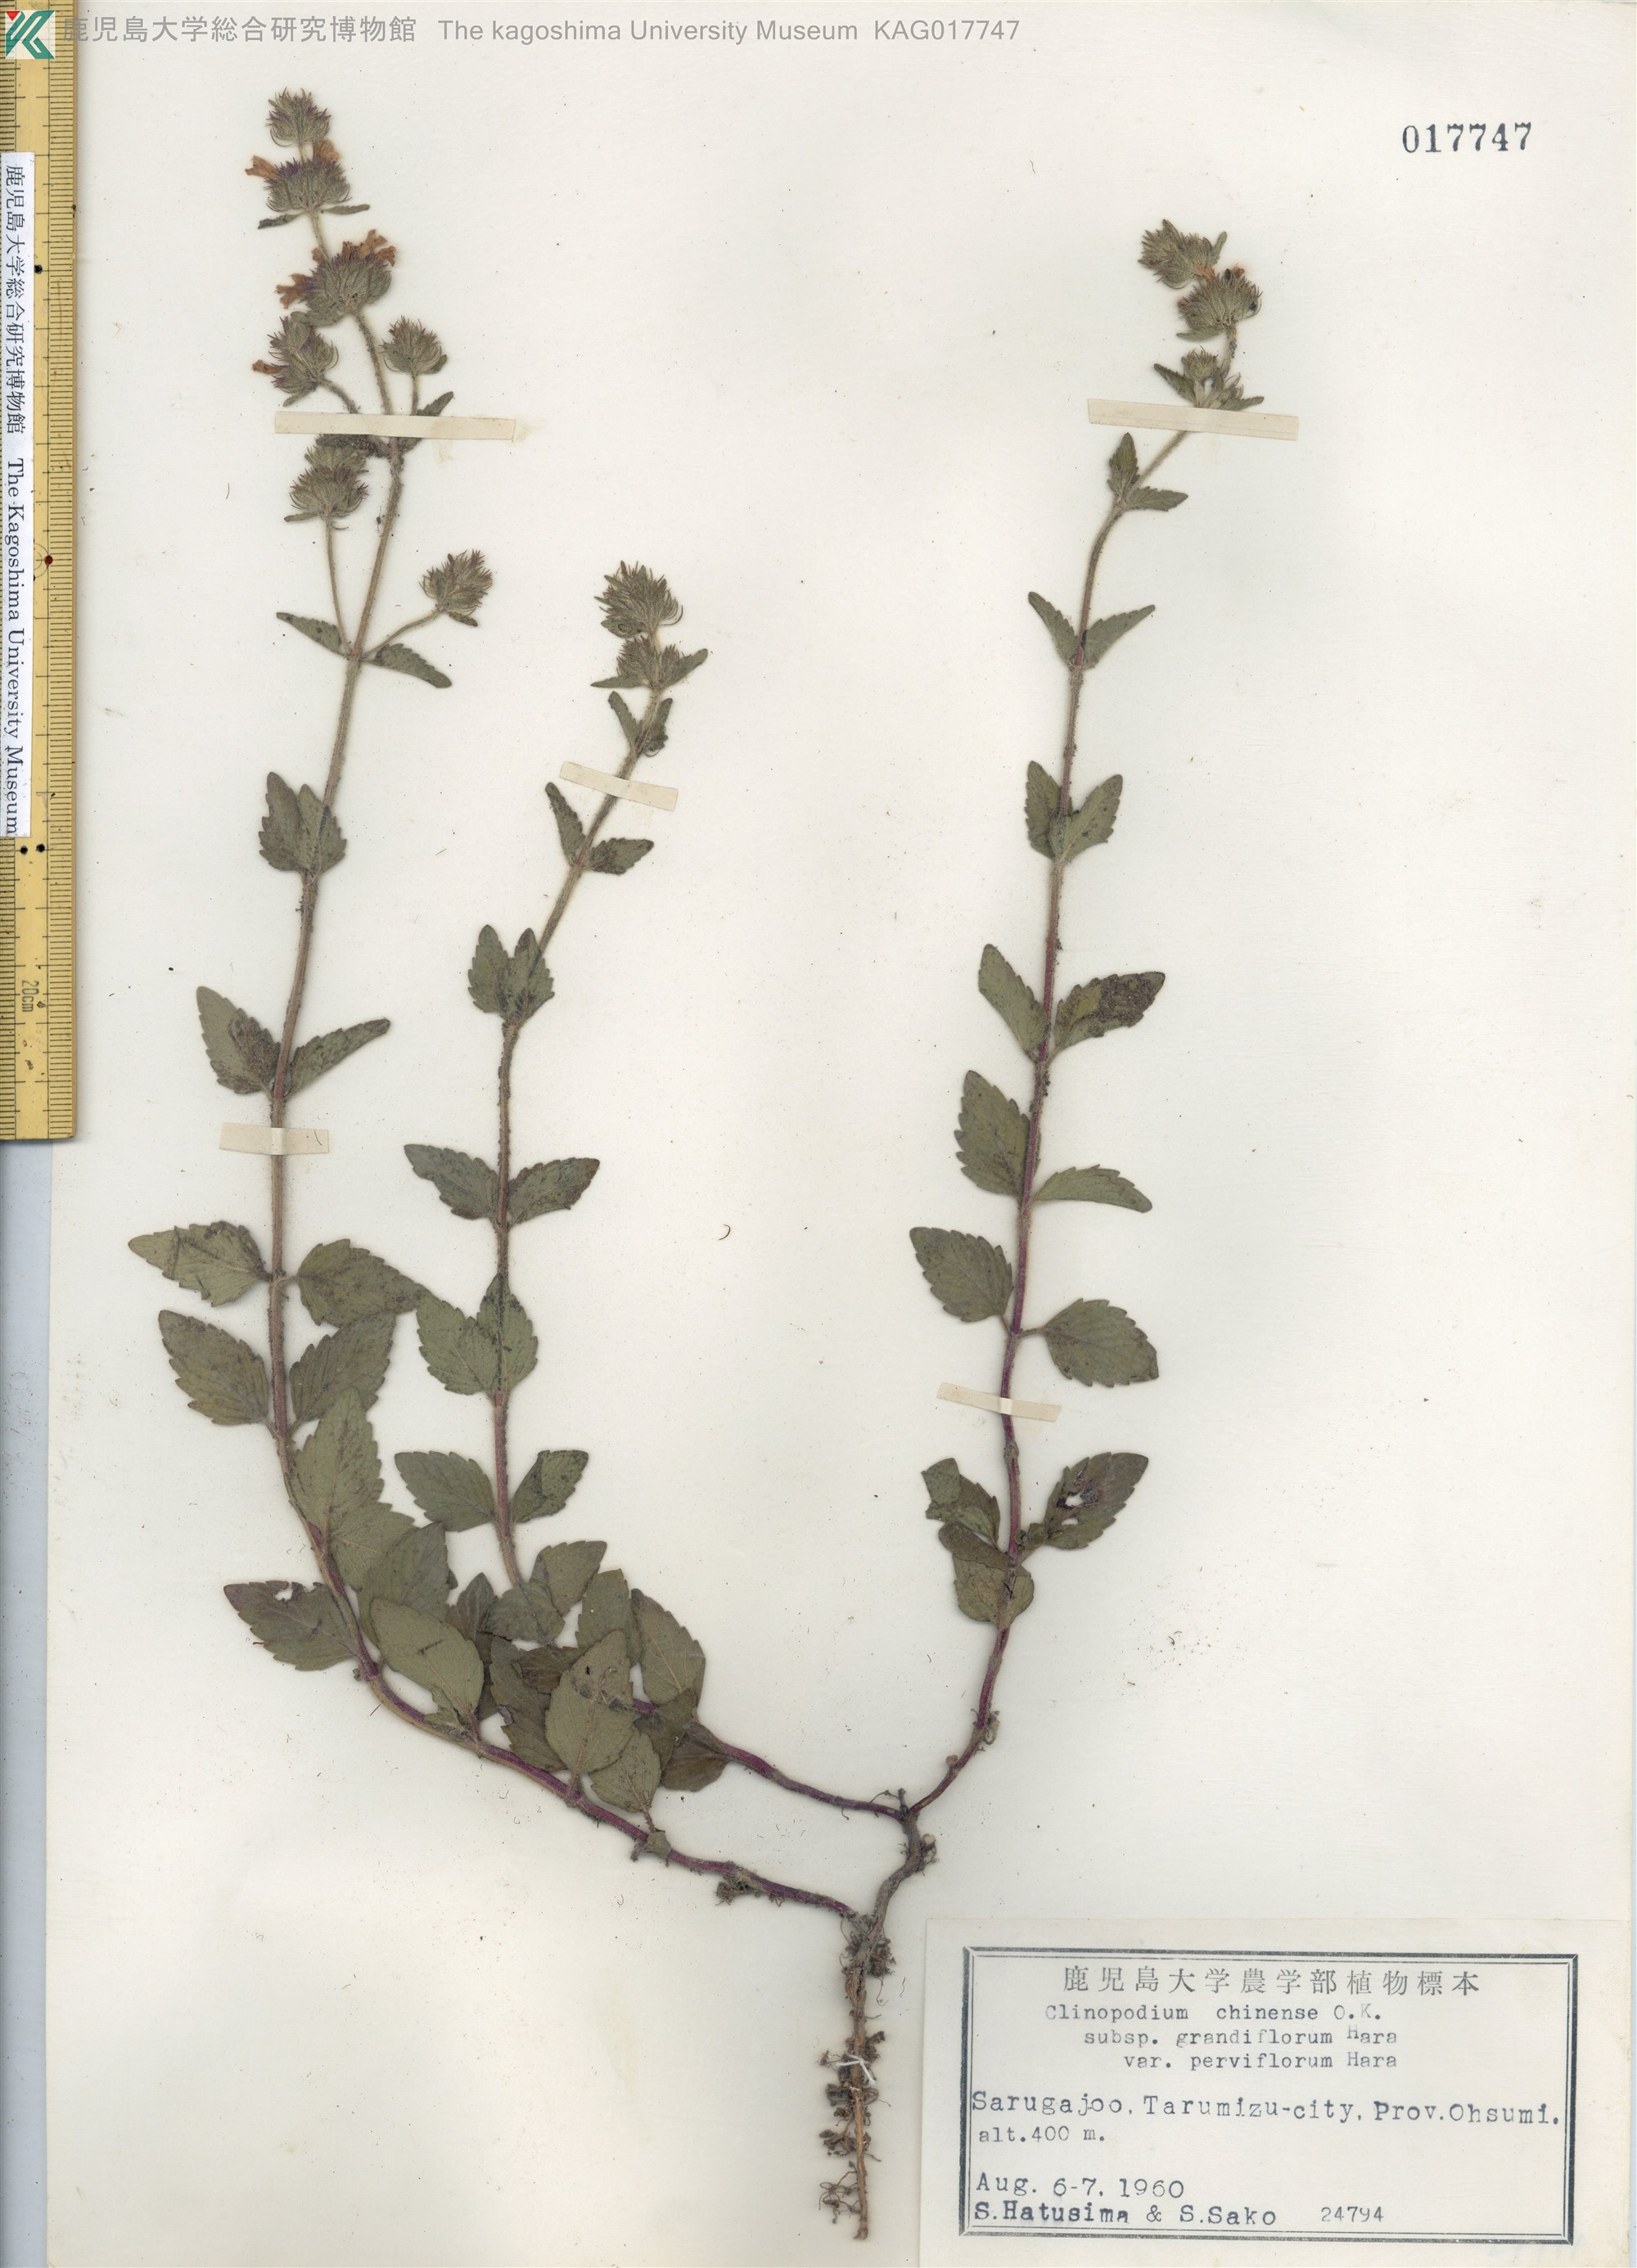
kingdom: Plantae
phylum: Tracheophyta
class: Magnoliopsida
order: Lamiales
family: Lamiaceae
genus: Clinopodium
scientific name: Clinopodium chinense
